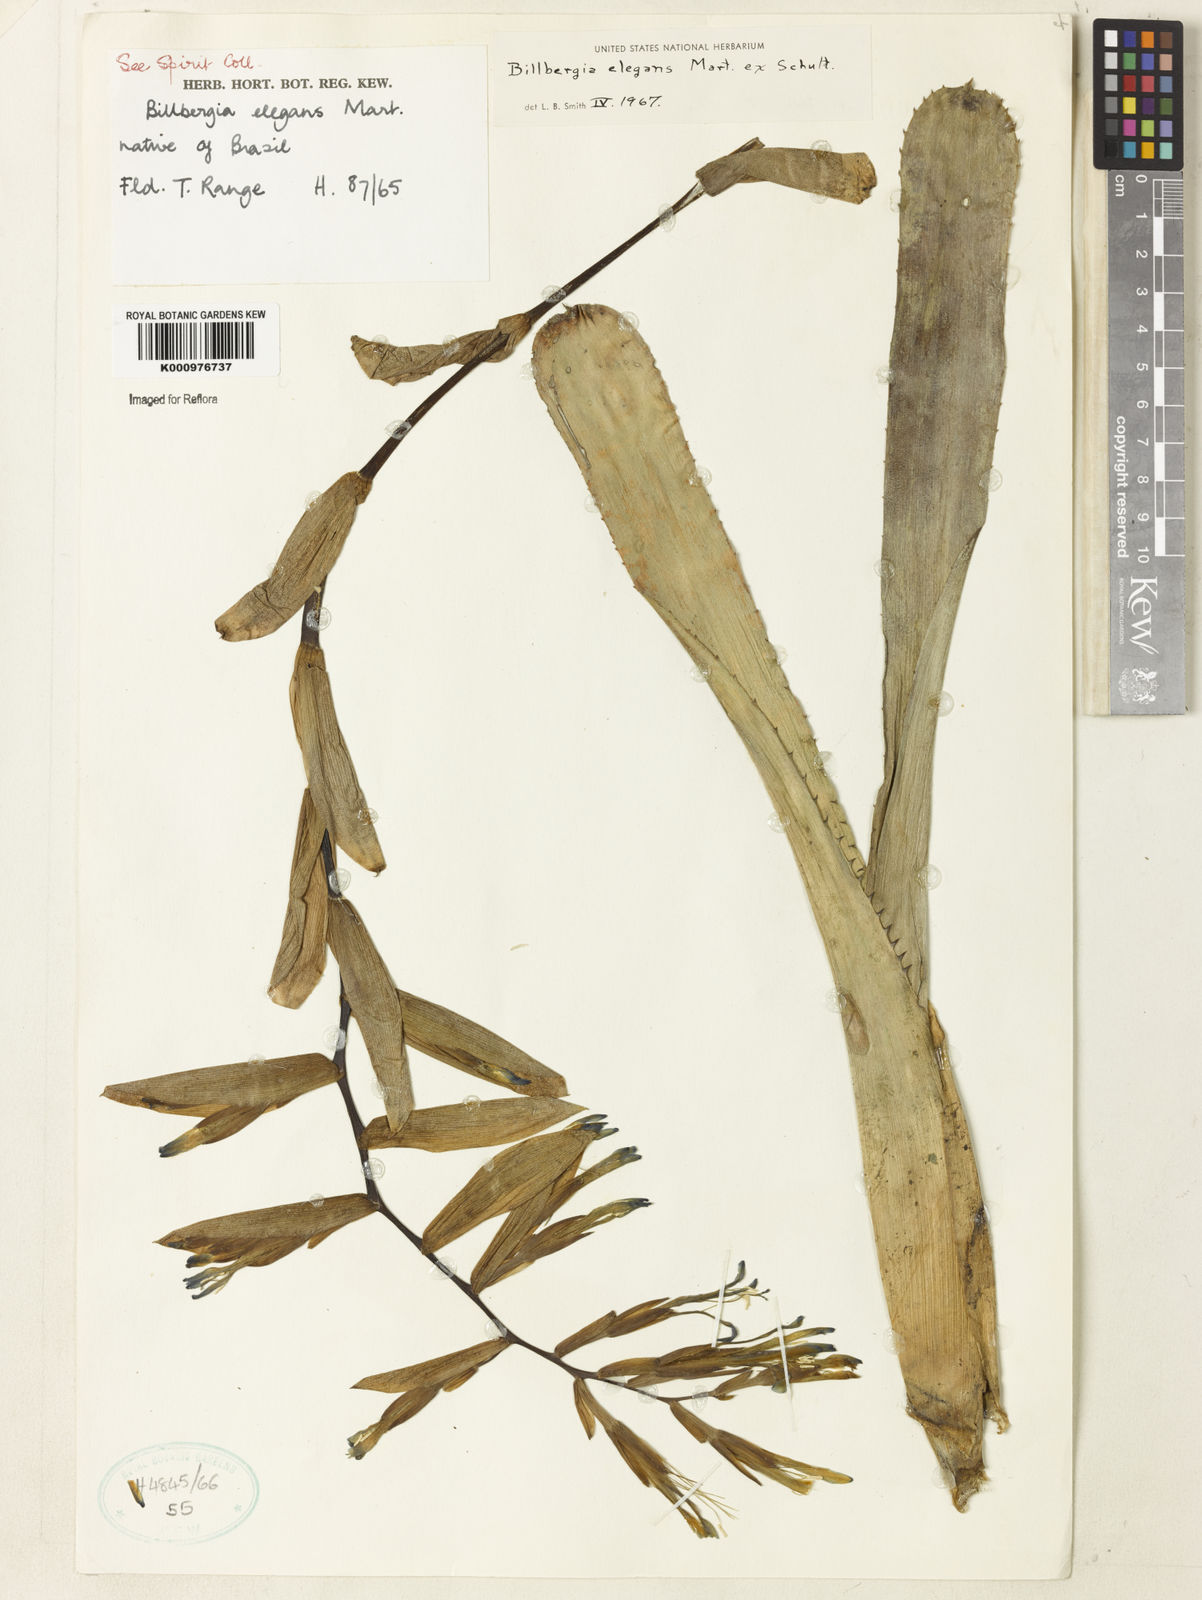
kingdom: Plantae
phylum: Tracheophyta
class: Liliopsida
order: Poales
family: Bromeliaceae
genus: Billbergia
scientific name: Billbergia speciosa
